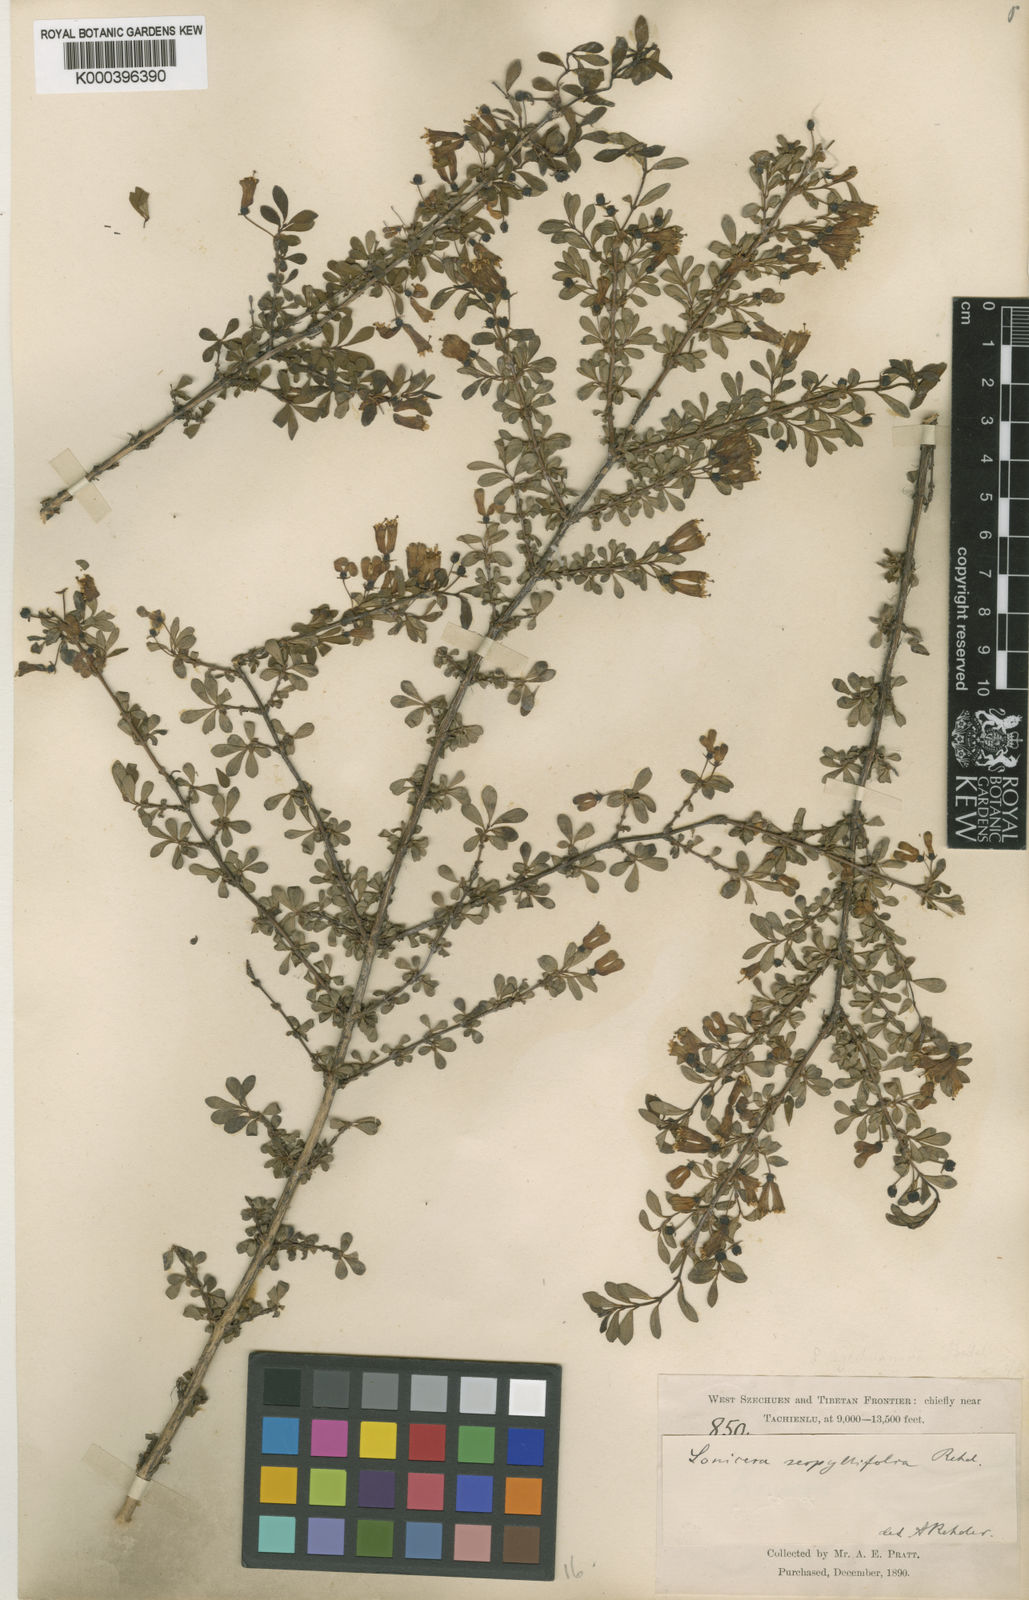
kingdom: Plantae
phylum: Tracheophyta
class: Magnoliopsida
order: Dipsacales
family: Caprifoliaceae
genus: Lonicera
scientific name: Lonicera tangutica
